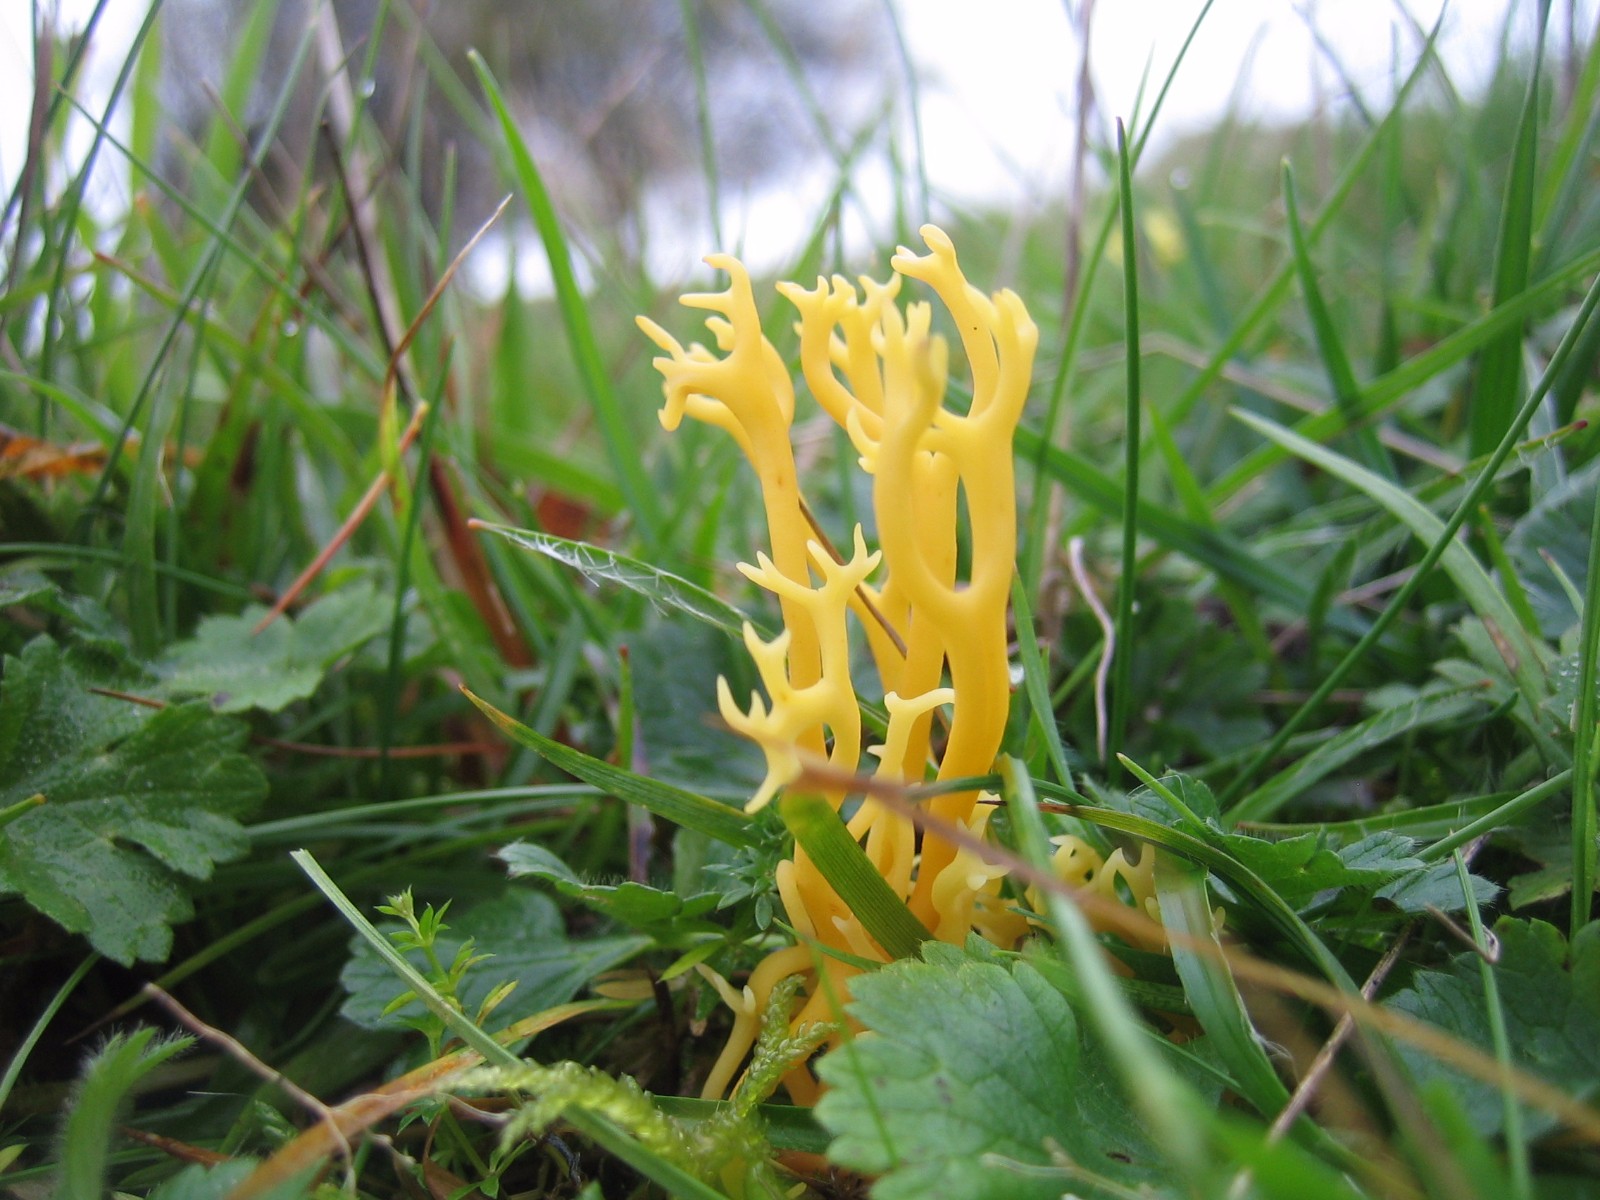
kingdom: Fungi
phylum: Basidiomycota
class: Agaricomycetes
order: Agaricales
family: Clavariaceae
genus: Clavulinopsis
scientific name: Clavulinopsis corniculata
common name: eng-køllesvamp
